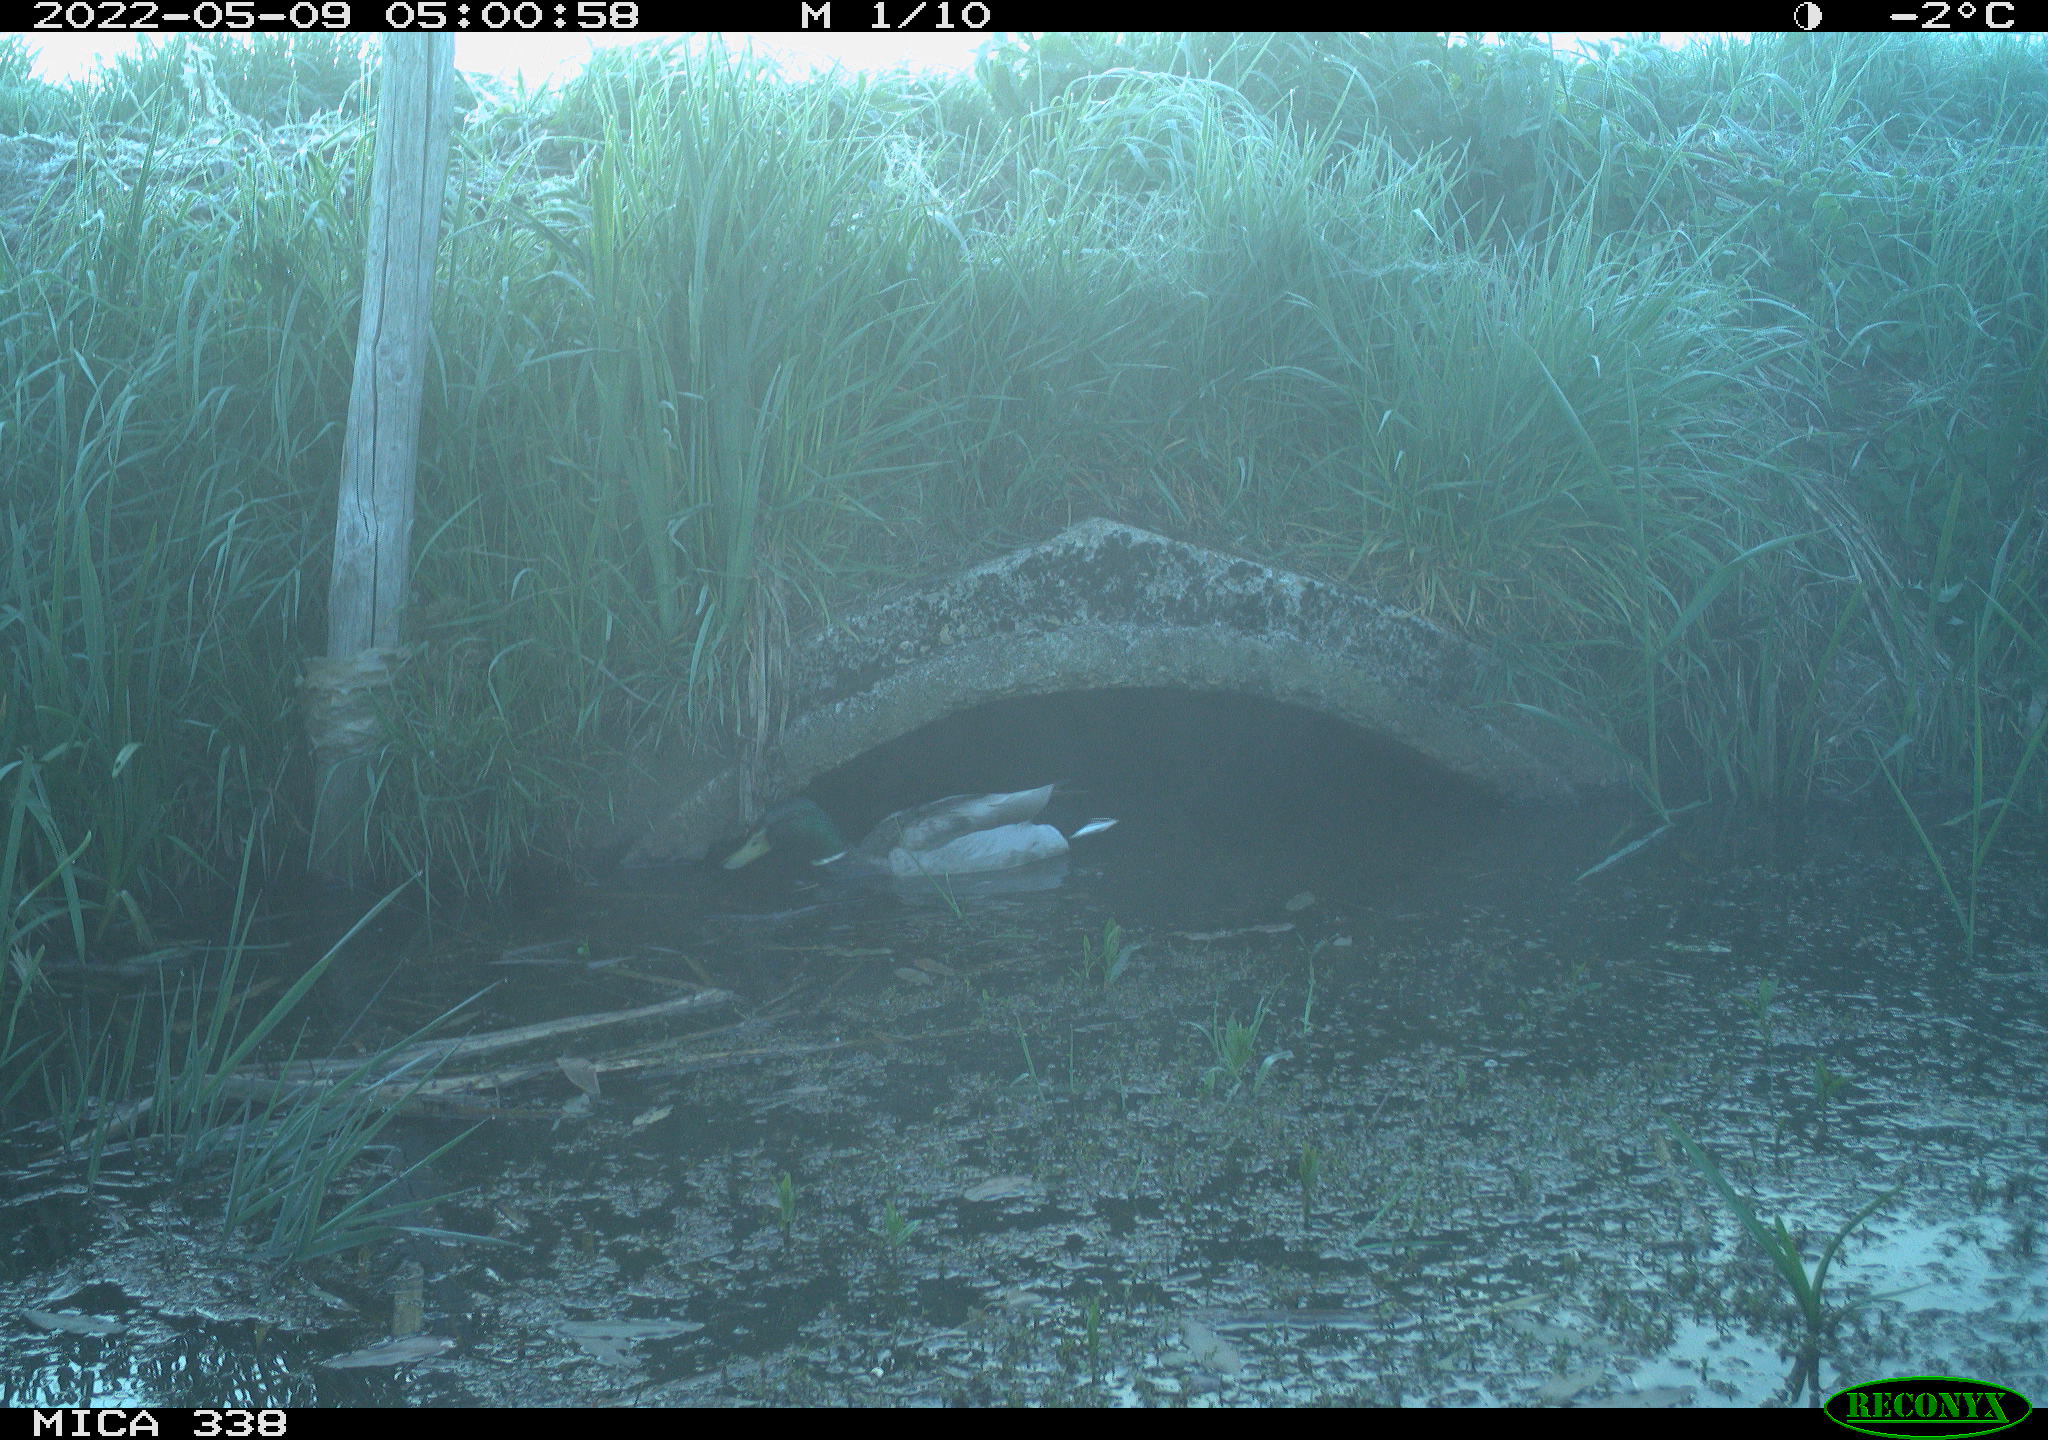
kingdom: Animalia
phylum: Chordata
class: Aves
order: Anseriformes
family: Anatidae
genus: Anas
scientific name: Anas platyrhynchos
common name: Mallard
